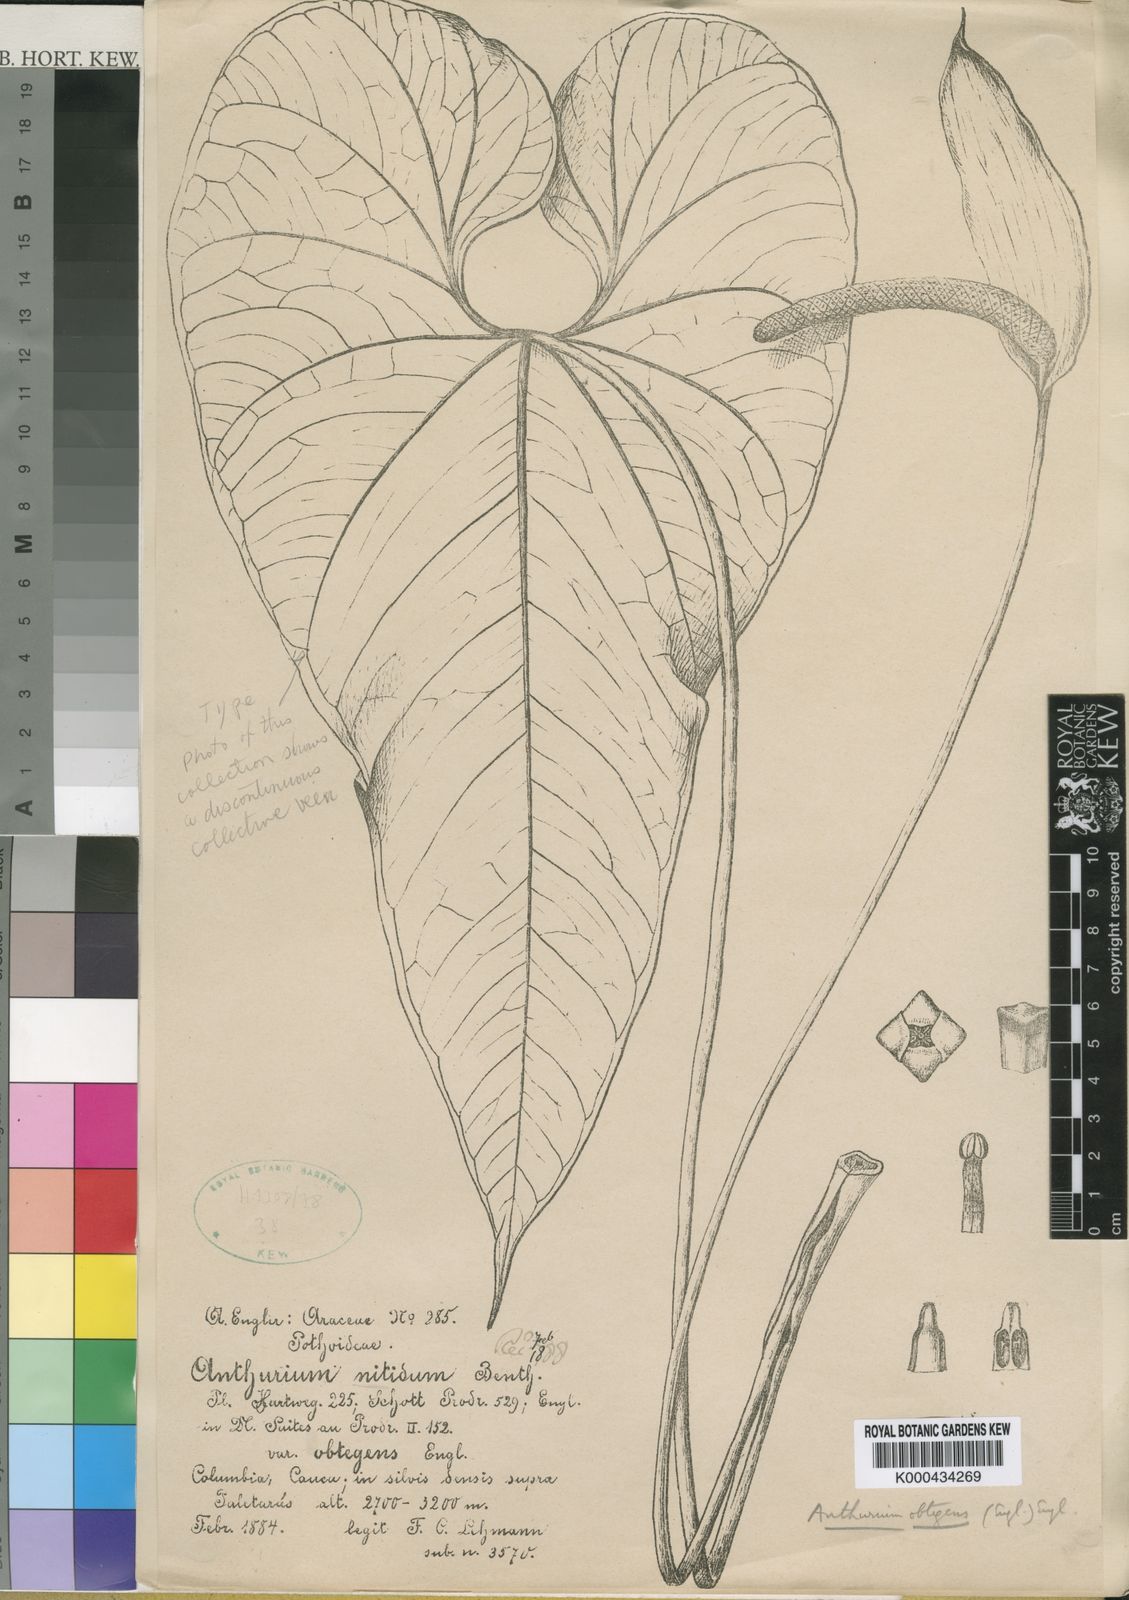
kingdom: Plantae
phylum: Tracheophyta
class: Liliopsida
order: Alismatales
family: Araceae
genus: Anthurium
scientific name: Anthurium nigrescens
